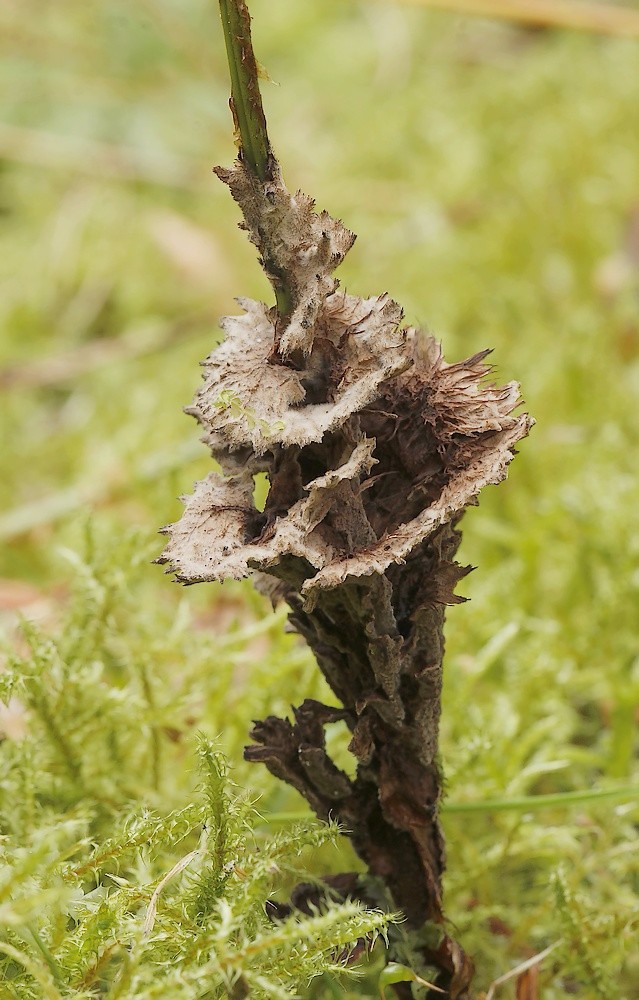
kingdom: Fungi
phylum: Basidiomycota
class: Agaricomycetes
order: Thelephorales
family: Thelephoraceae
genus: Thelephora
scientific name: Thelephora terrestris
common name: fliget frynsesvamp
